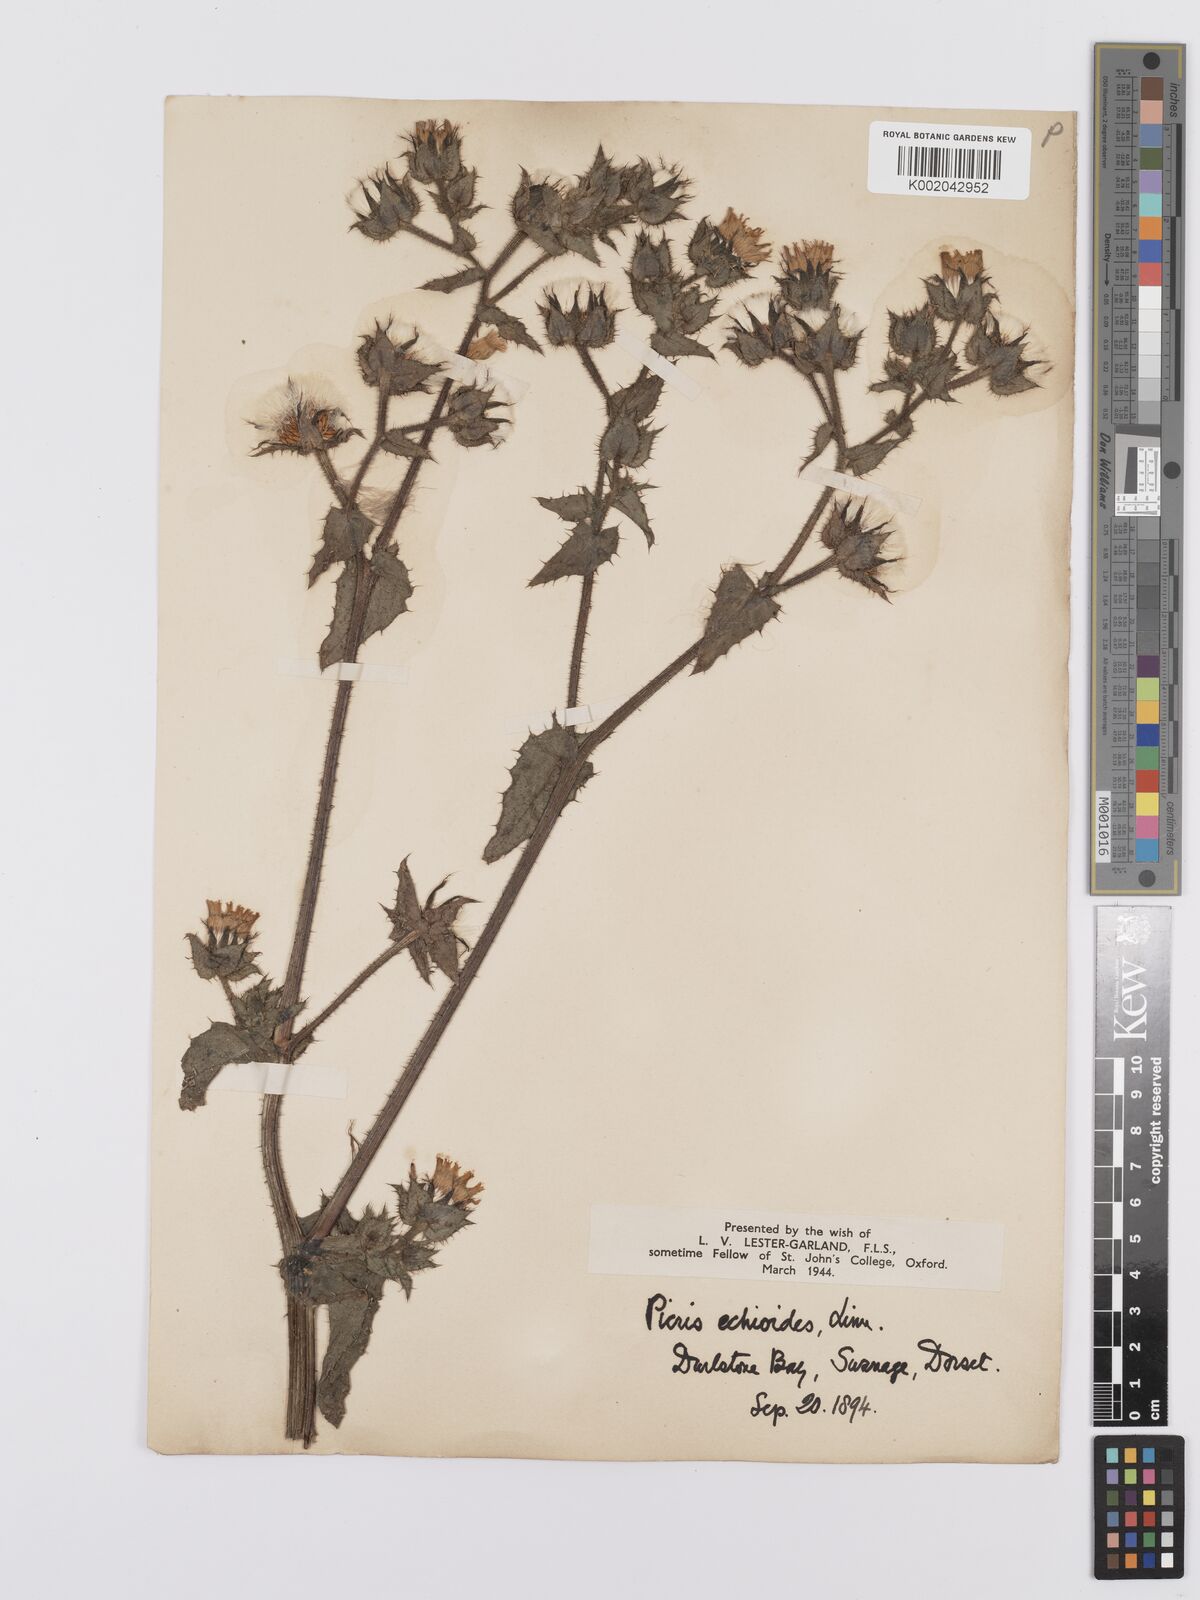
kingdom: Plantae
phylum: Tracheophyta
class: Magnoliopsida
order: Asterales
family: Asteraceae
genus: Helminthotheca
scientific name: Helminthotheca echioides
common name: Ox-tongue
